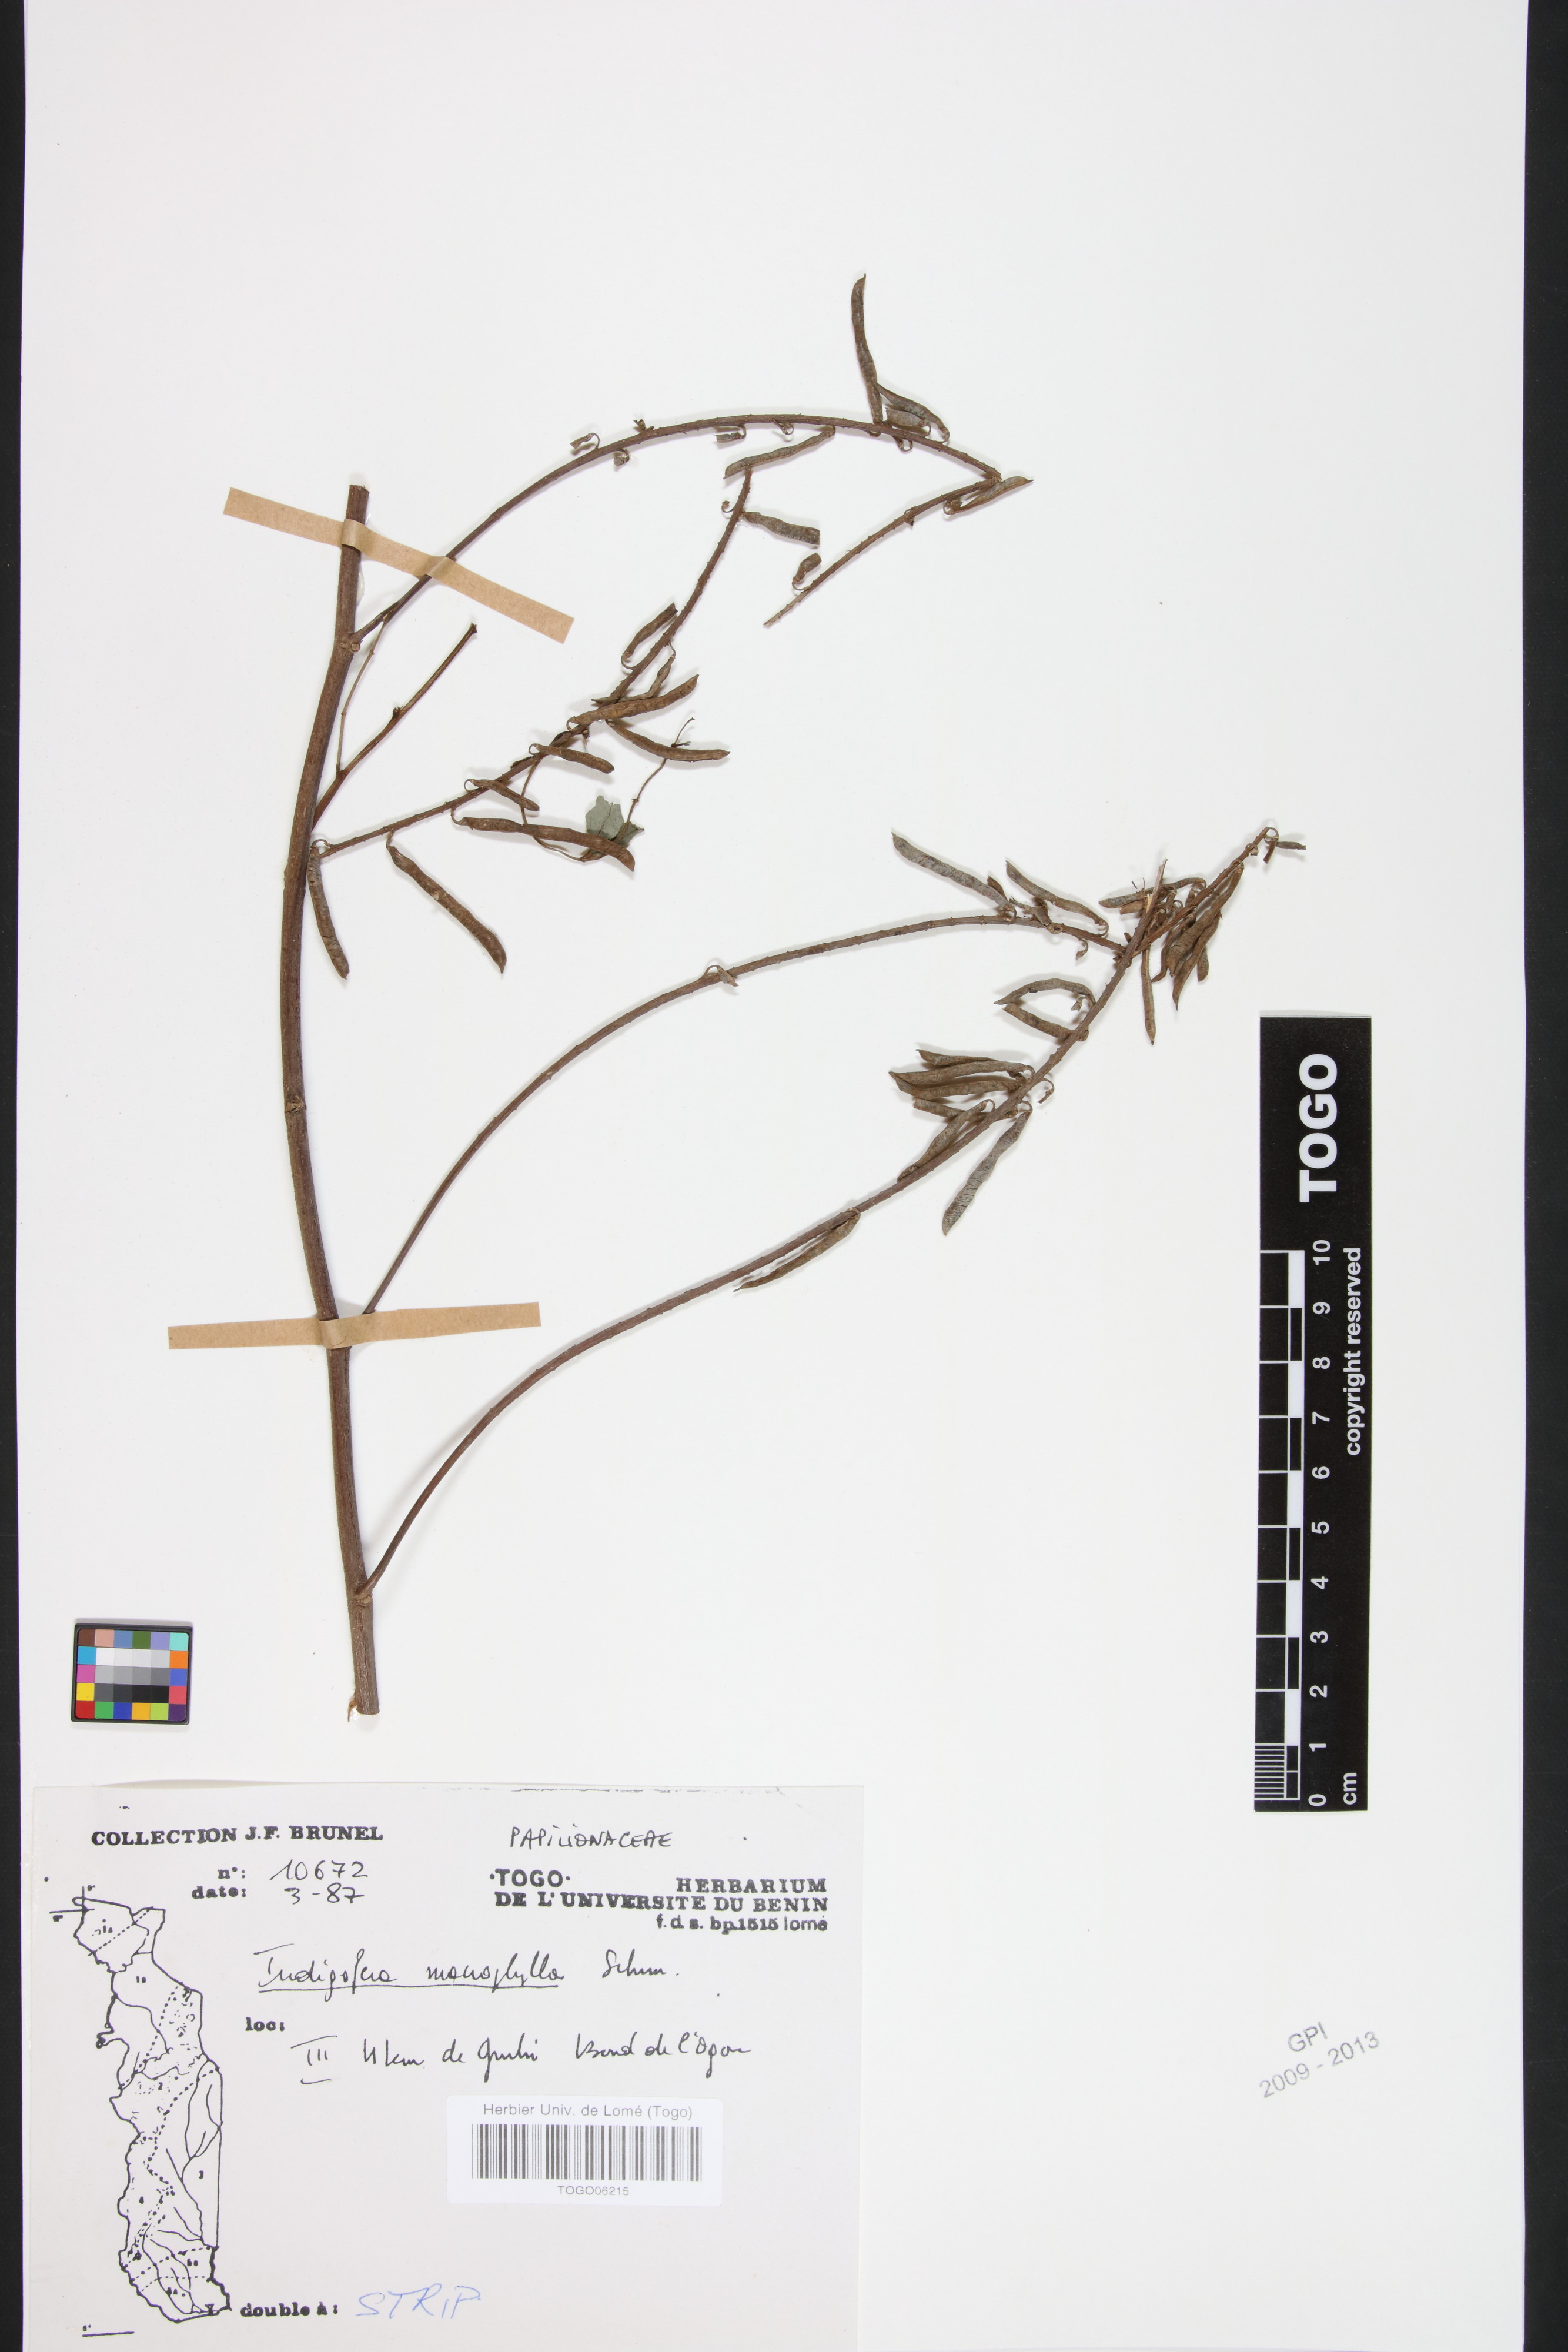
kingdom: Plantae
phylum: Tracheophyta
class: Magnoliopsida
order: Fabales
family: Fabaceae
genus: Indigofera
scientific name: Indigofera macrophylla
